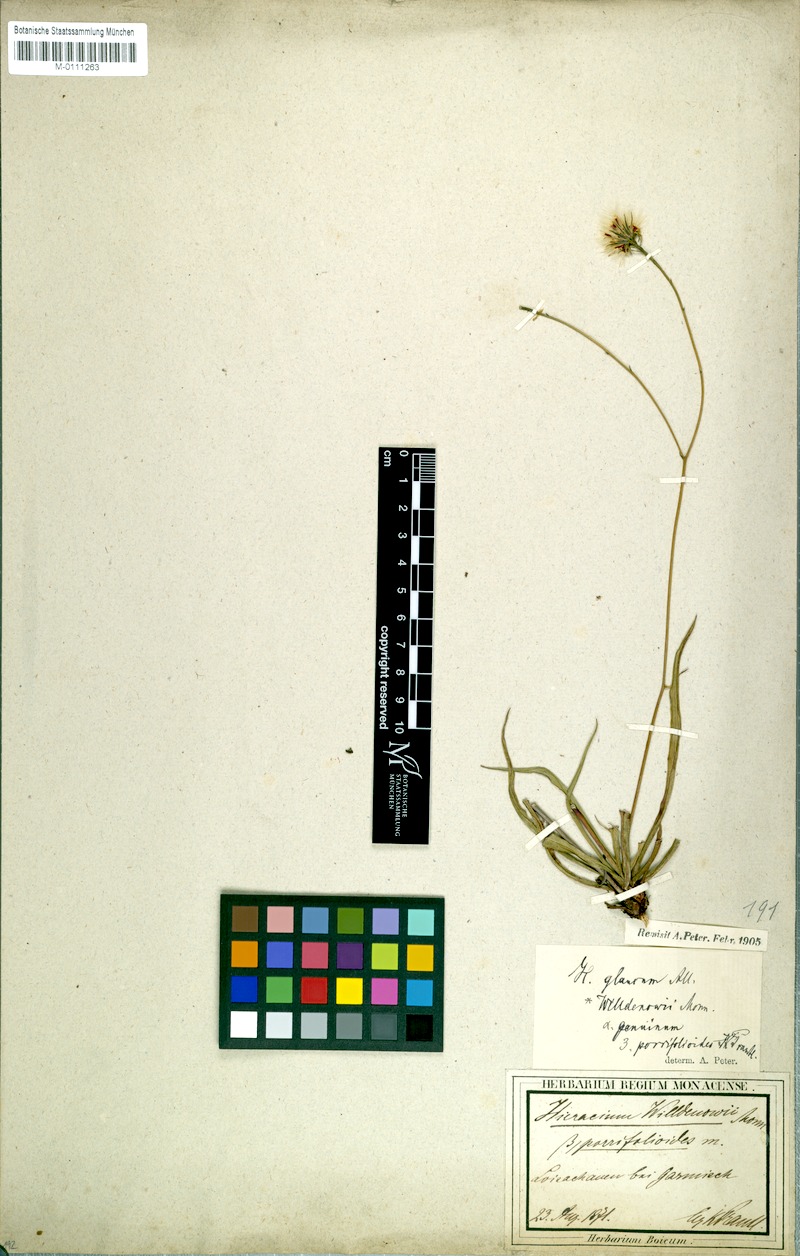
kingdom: Plantae
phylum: Tracheophyta
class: Magnoliopsida
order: Asterales
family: Asteraceae
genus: Hieracium
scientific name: Hieracium glaucum
